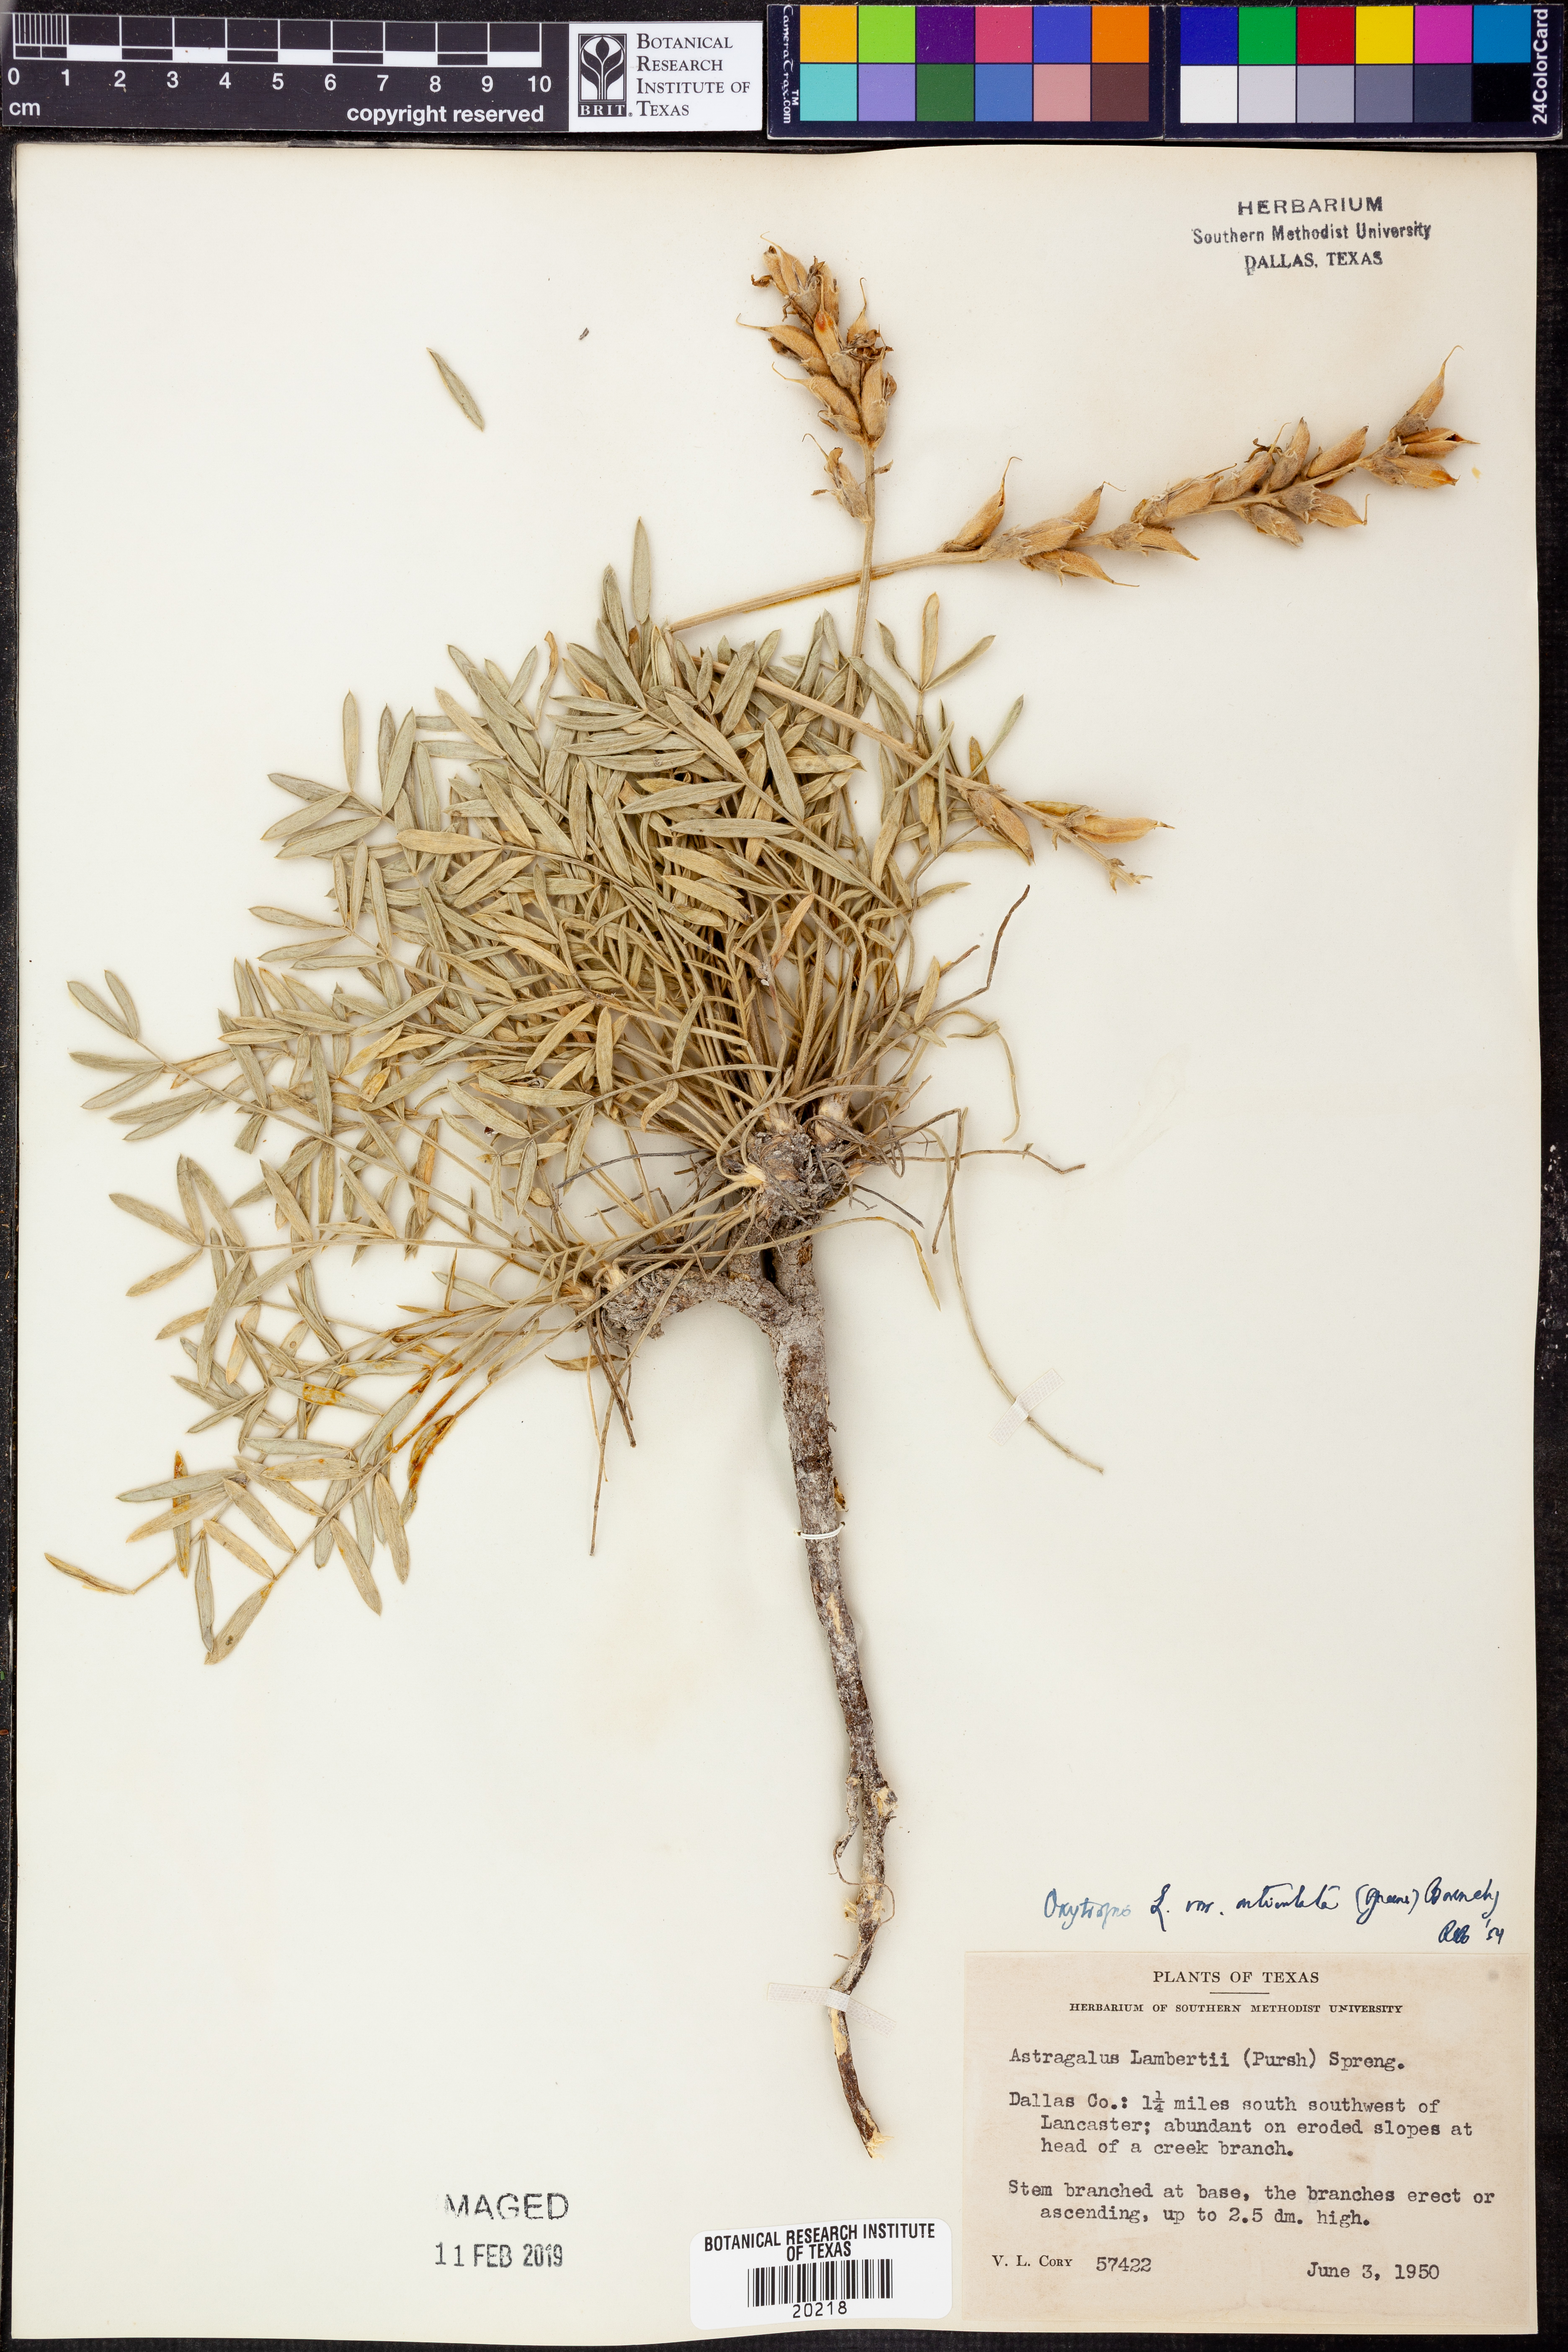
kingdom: Plantae
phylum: Tracheophyta
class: Magnoliopsida
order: Fabales
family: Fabaceae
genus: Oxytropis
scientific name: Oxytropis lambertii
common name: Purple locoweed
